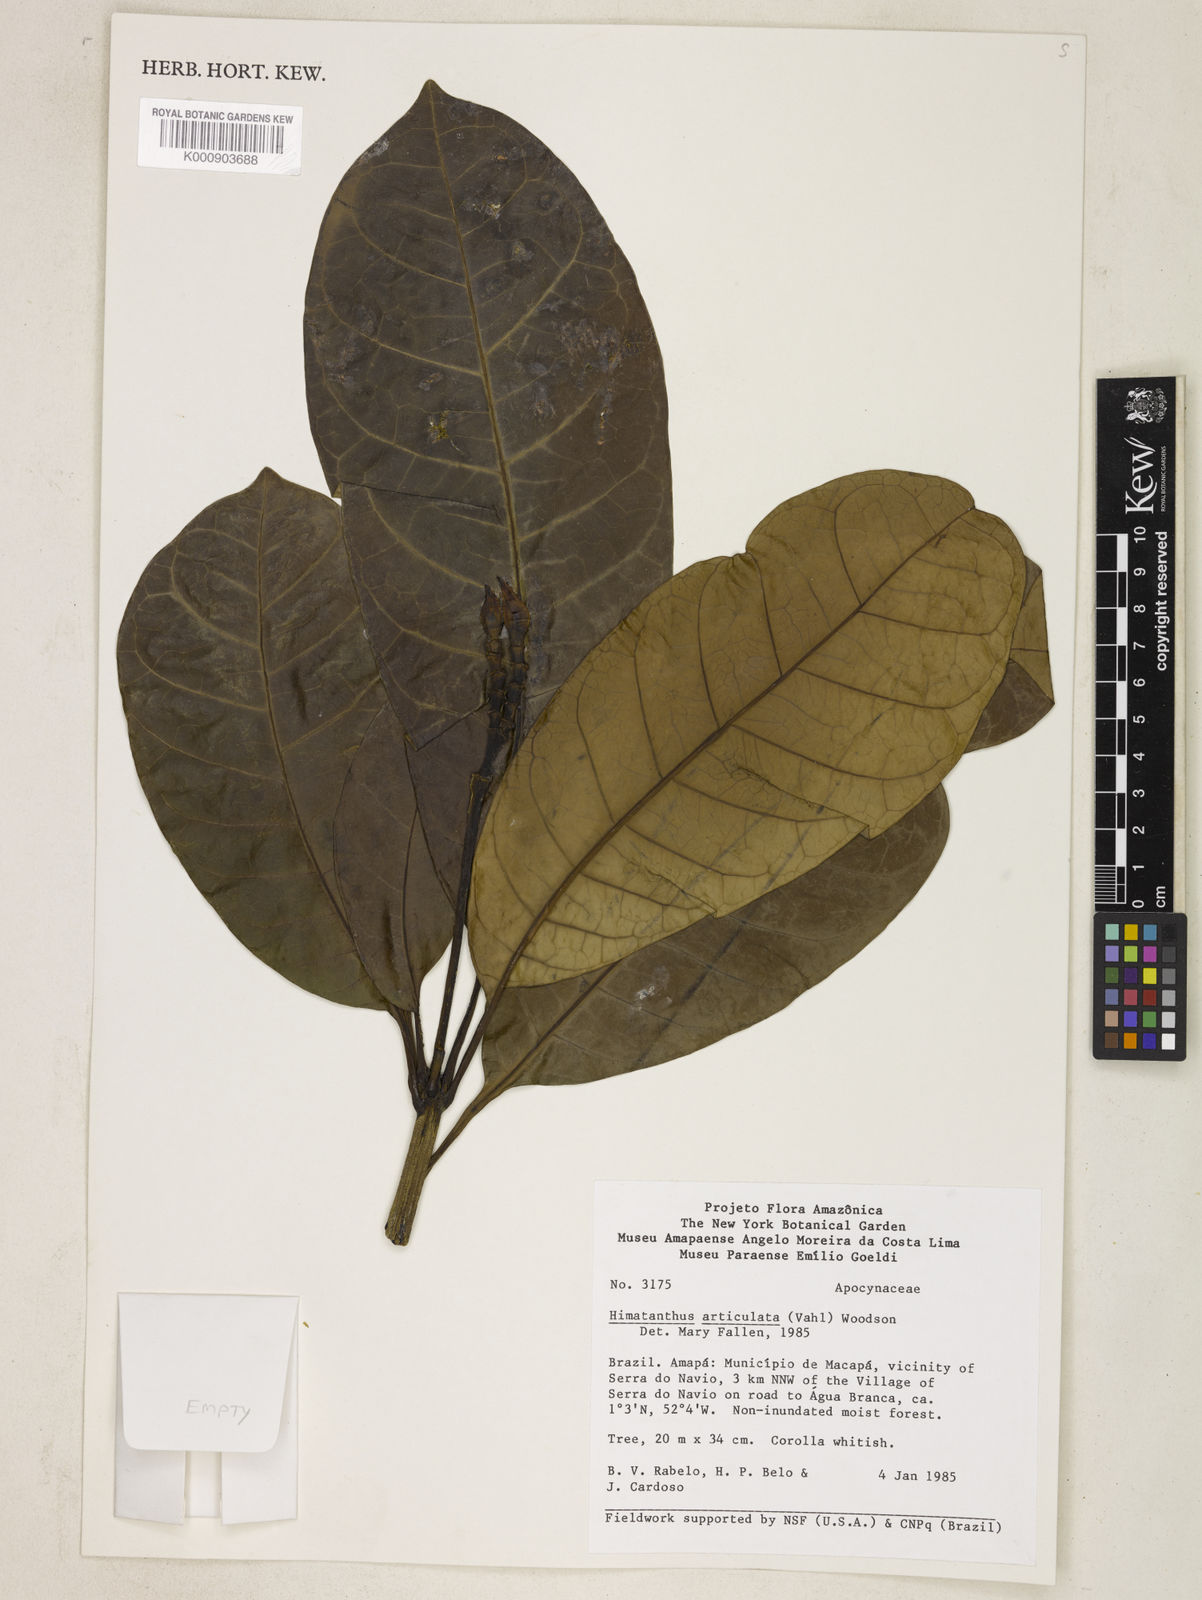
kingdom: Plantae
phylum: Tracheophyta
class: Magnoliopsida
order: Gentianales
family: Apocynaceae
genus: Himatanthus
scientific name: Himatanthus articulatus
